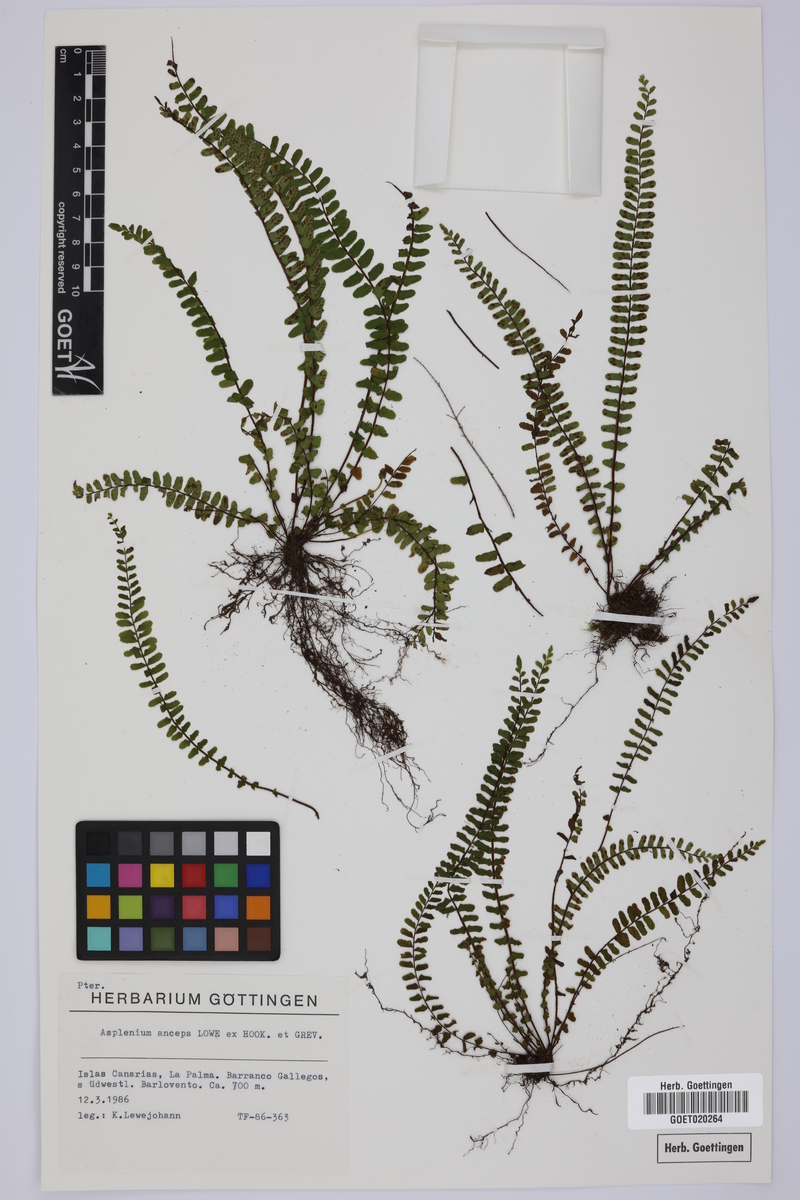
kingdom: Plantae
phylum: Tracheophyta
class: Polypodiopsida
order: Polypodiales
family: Aspleniaceae
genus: Asplenium
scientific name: Asplenium anceps
